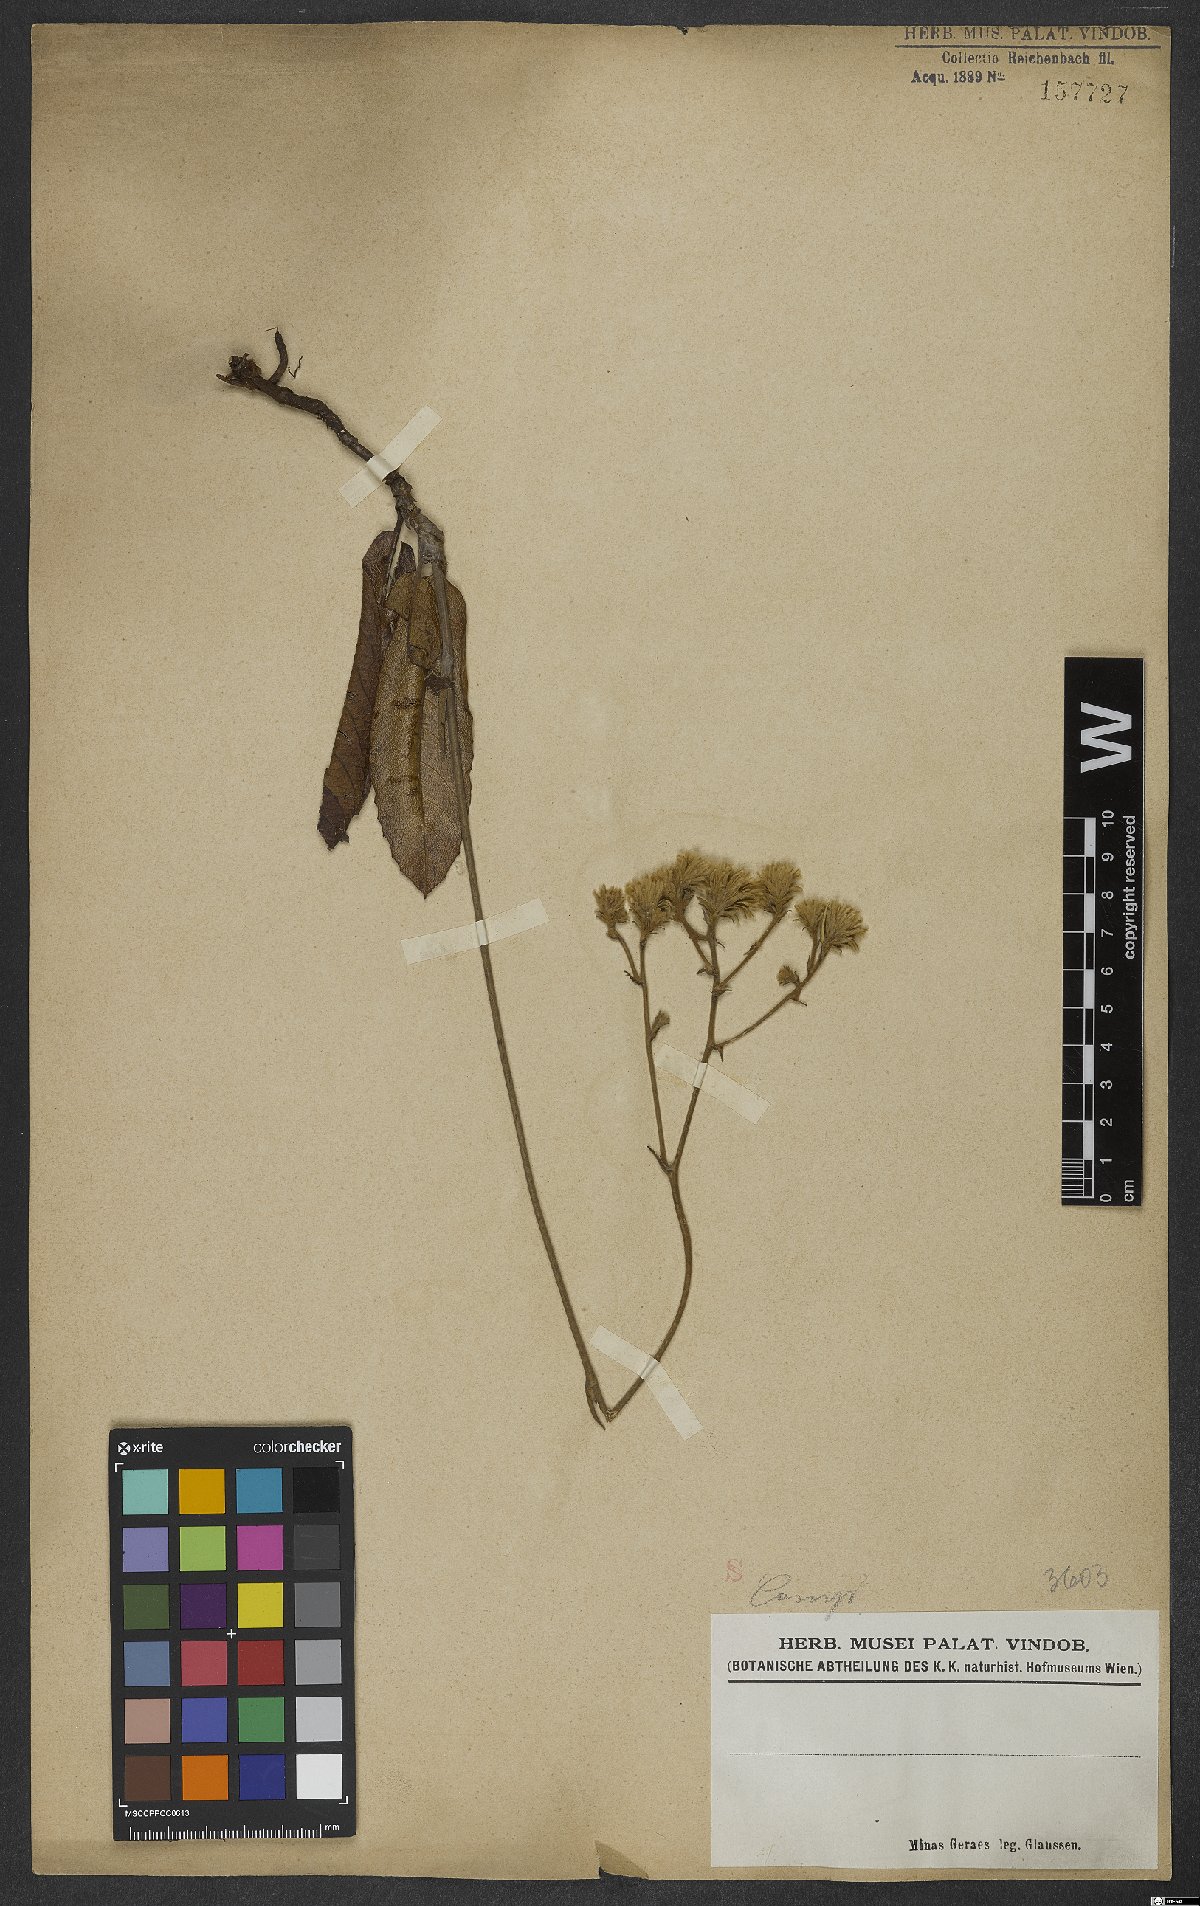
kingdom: Animalia
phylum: Cnidaria
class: Anthozoa
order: Scleractinia
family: Asteroseriidae
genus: Actinoseris
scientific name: Actinoseris
